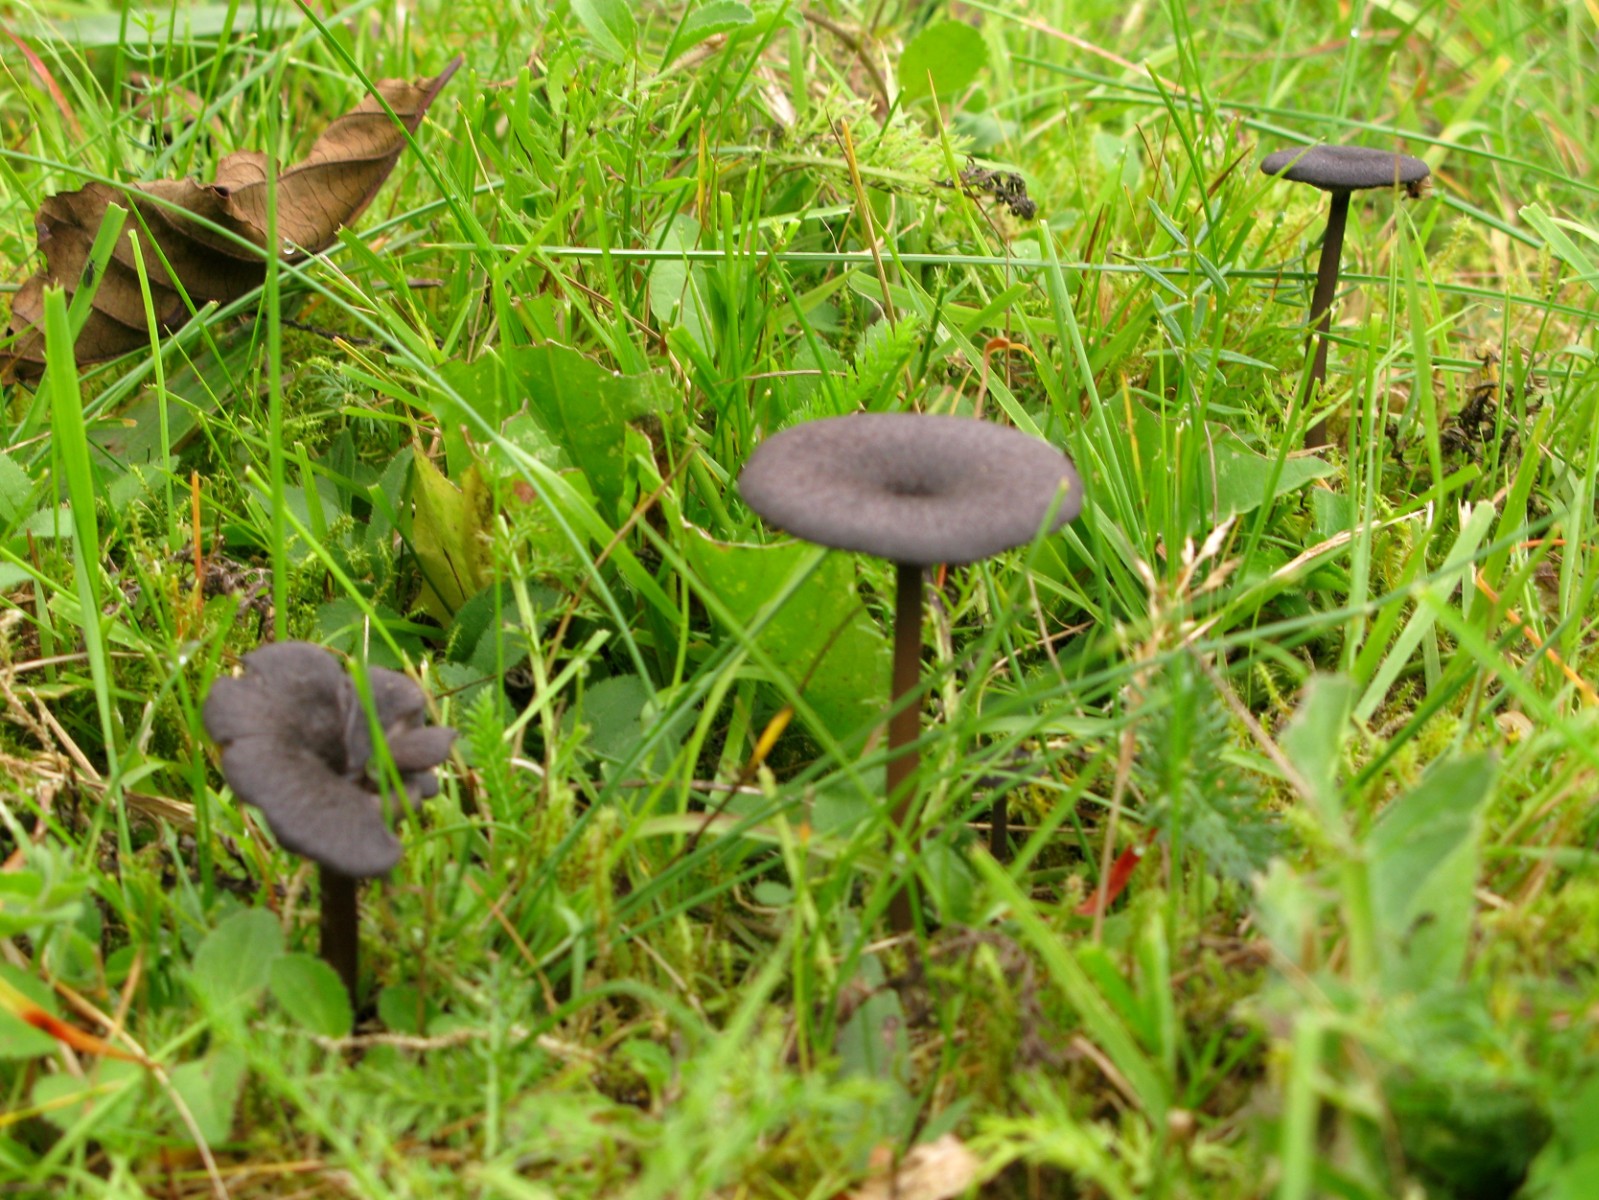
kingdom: Fungi
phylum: Basidiomycota
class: Agaricomycetes
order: Agaricales
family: Entolomataceae
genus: Entoloma
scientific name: Entoloma
